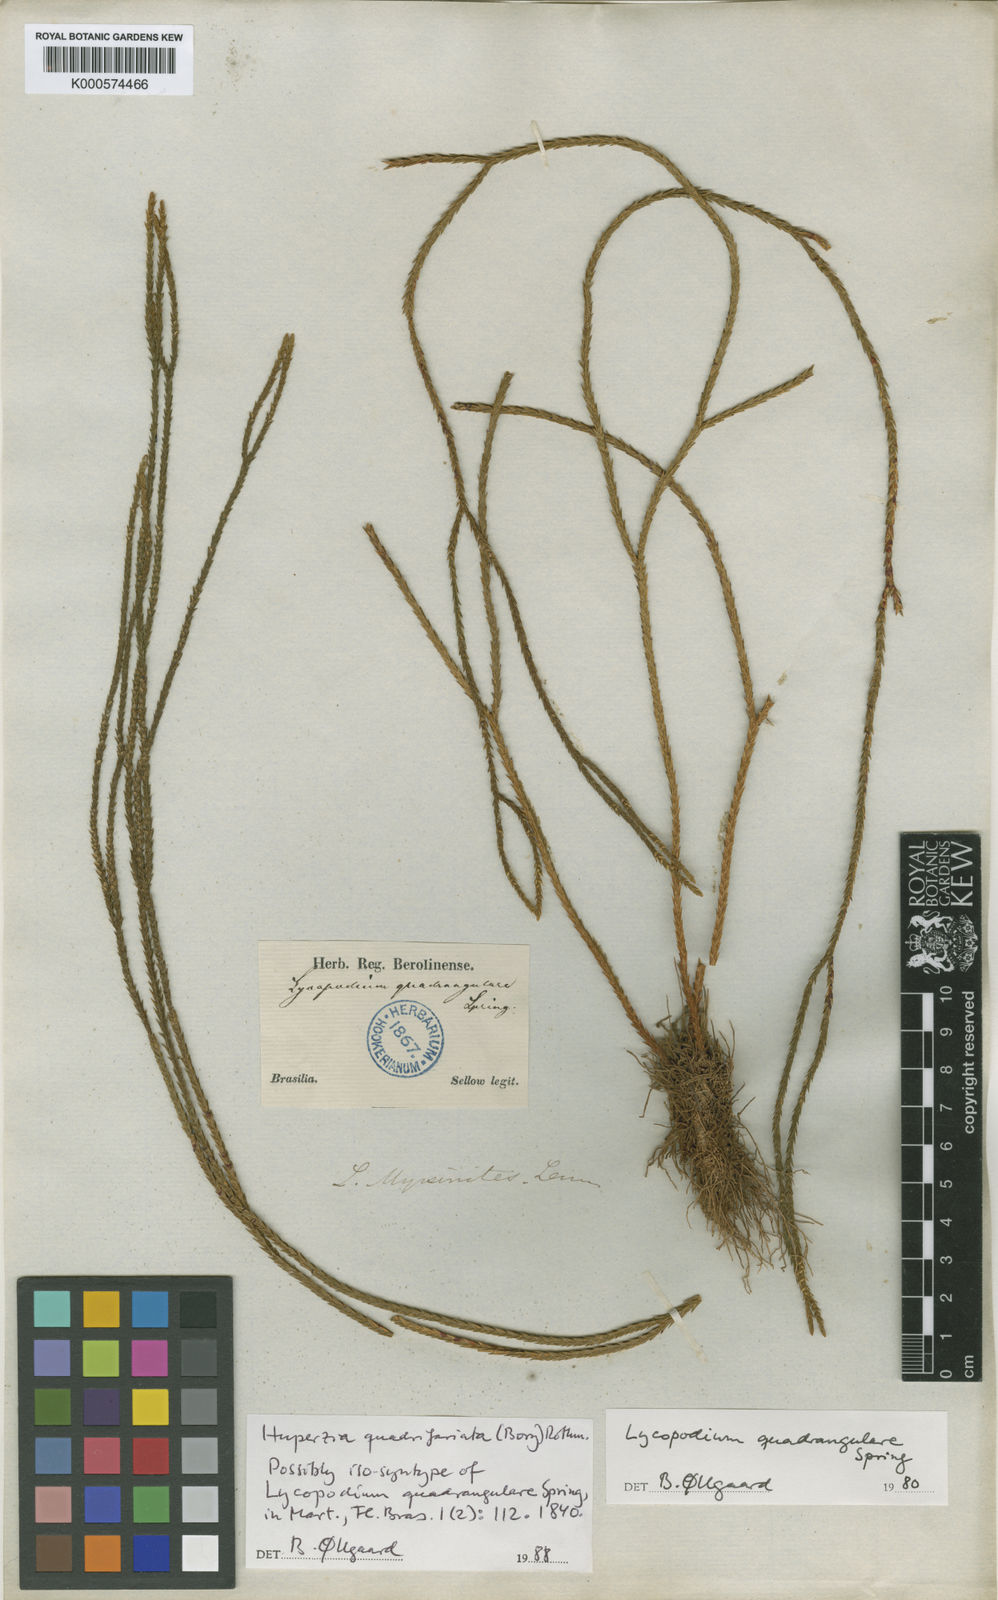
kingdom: Plantae
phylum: Tracheophyta
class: Lycopodiopsida
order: Lycopodiales
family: Lycopodiaceae
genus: Phlegmariurus
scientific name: Phlegmariurus quadrifariatus
